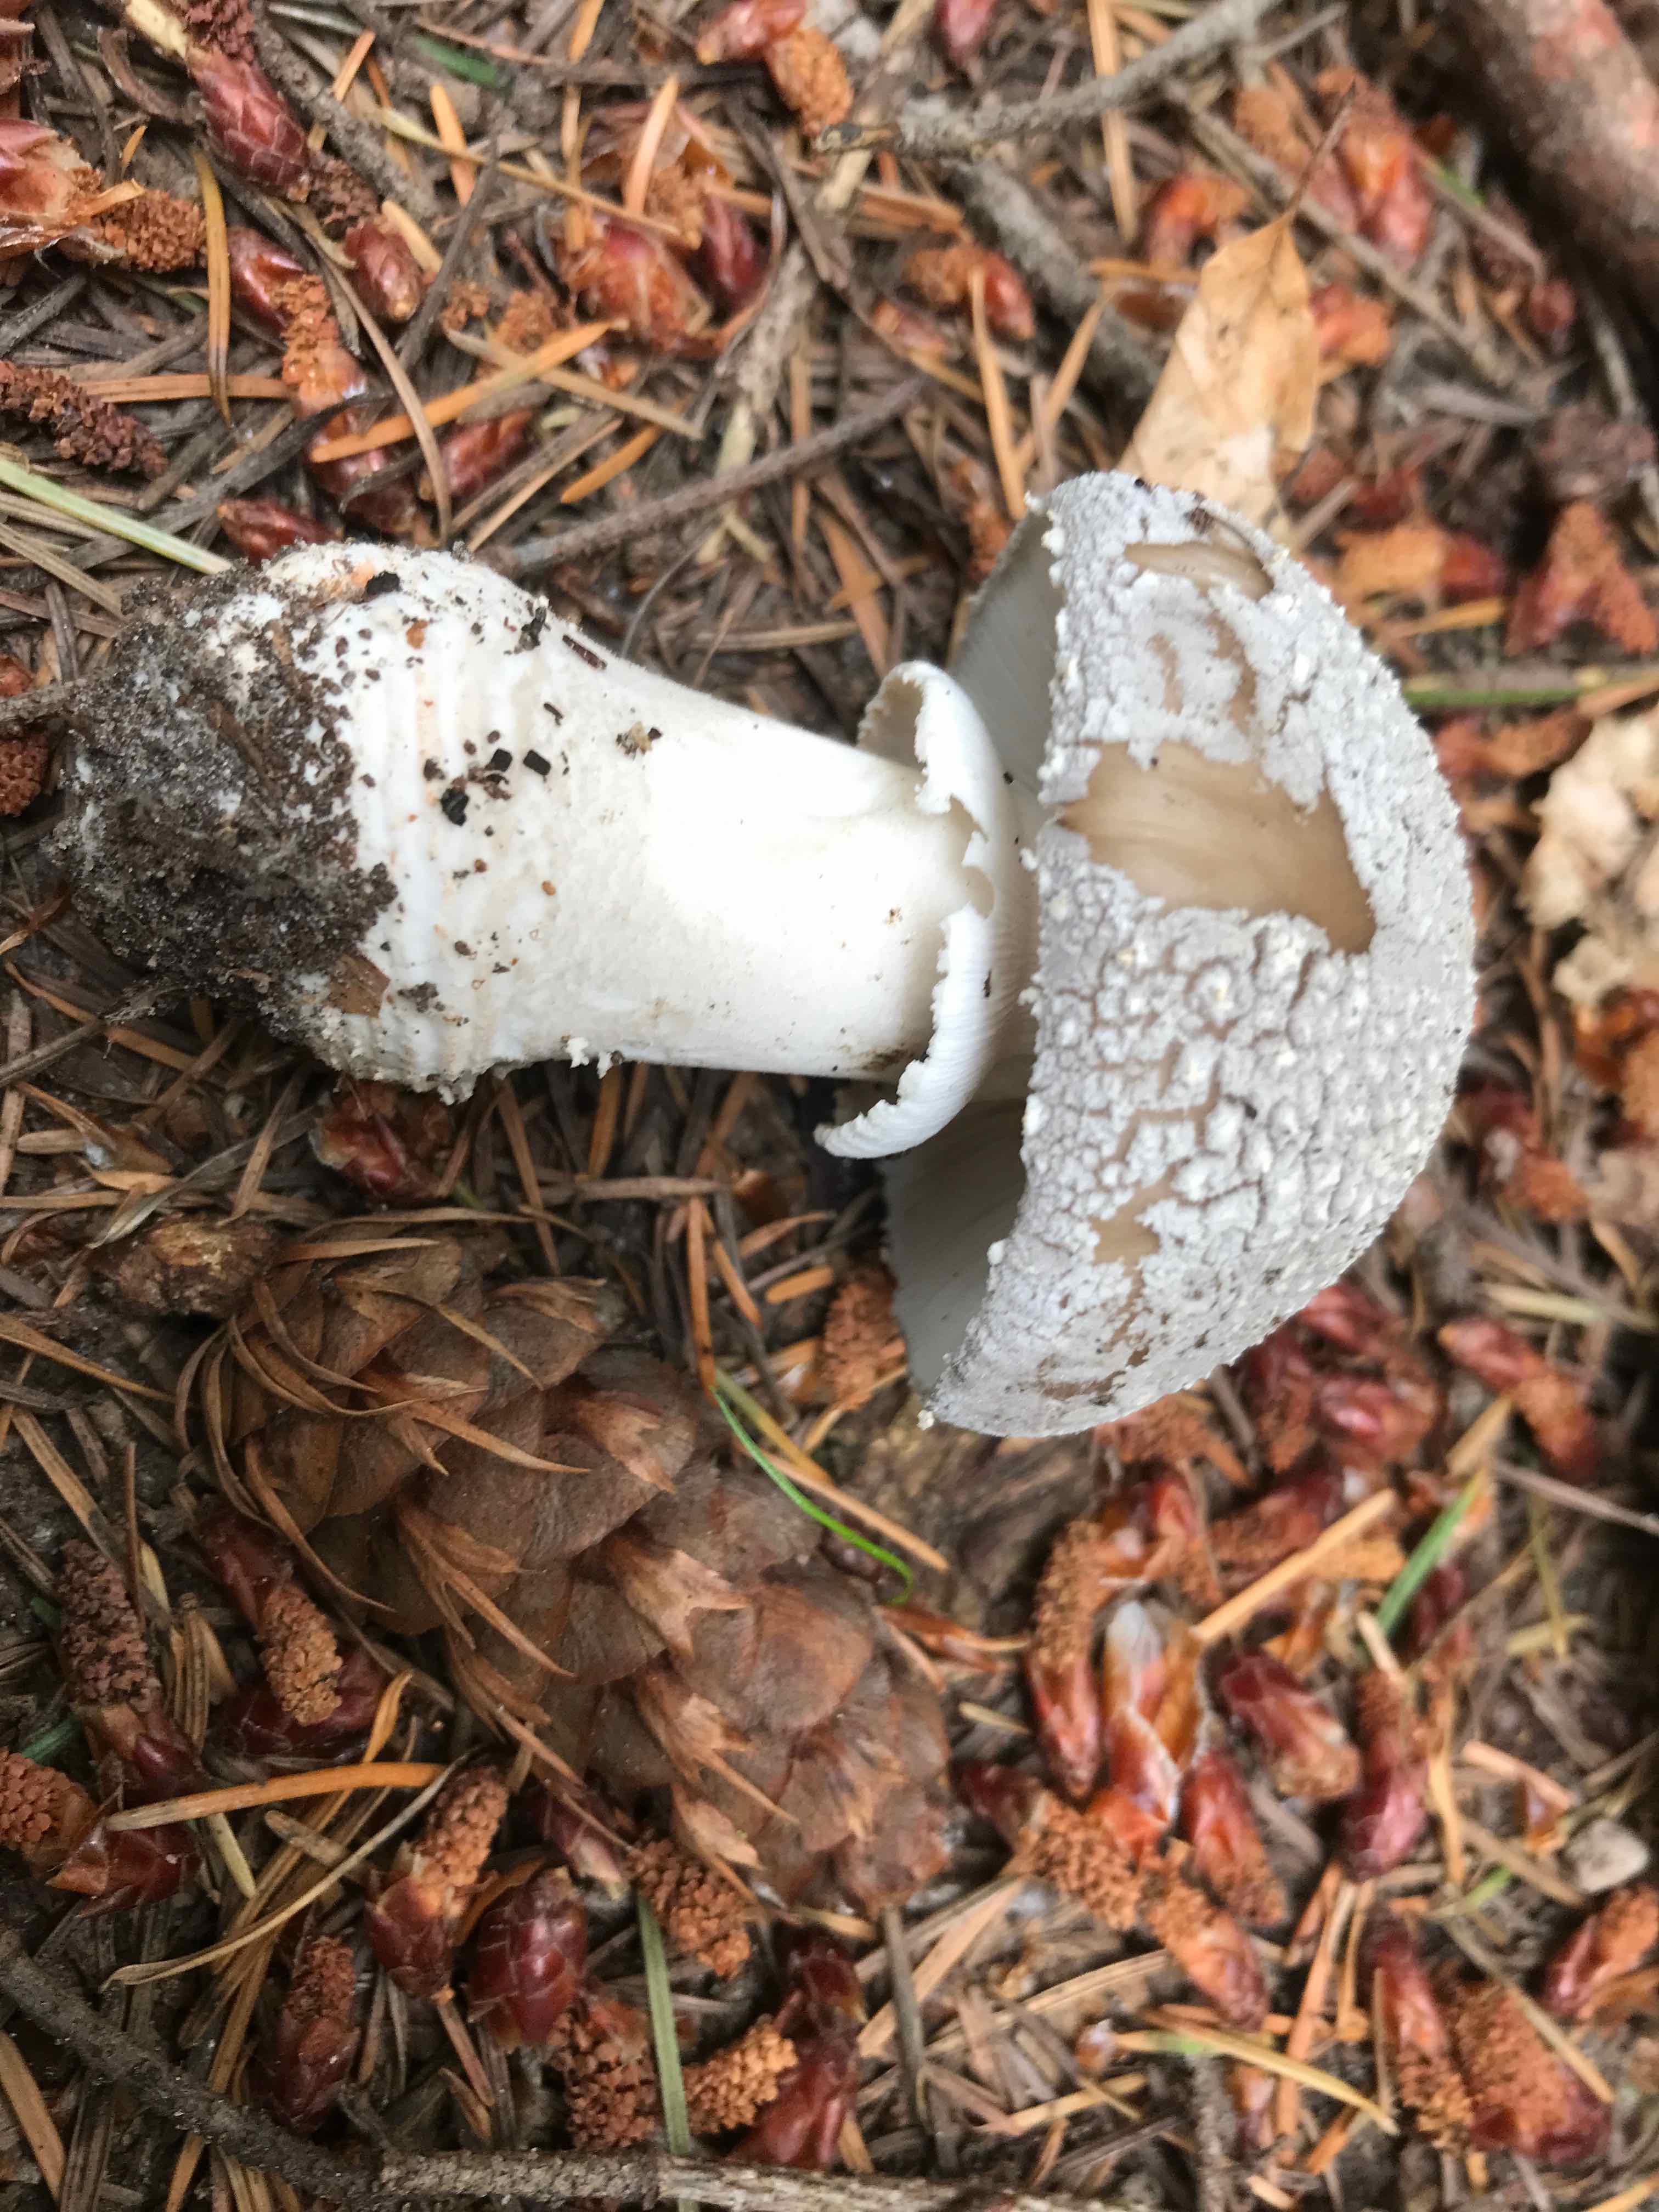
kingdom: Fungi
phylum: Basidiomycota
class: Agaricomycetes
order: Agaricales
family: Amanitaceae
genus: Amanita
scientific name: Amanita
